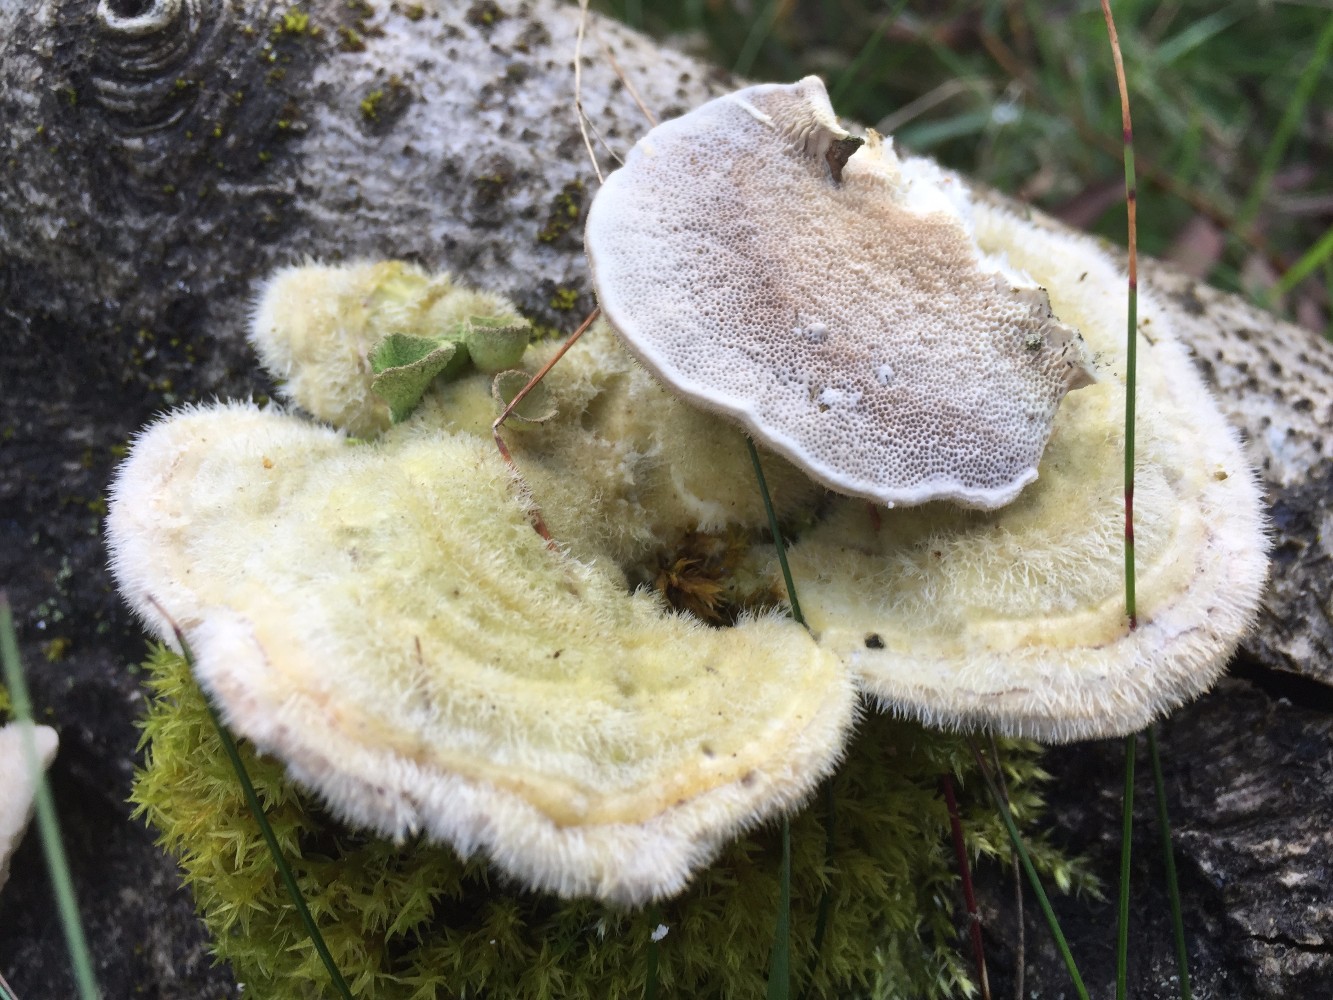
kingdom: Fungi
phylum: Basidiomycota
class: Agaricomycetes
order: Polyporales
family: Polyporaceae
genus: Trametes
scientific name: Trametes hirsuta
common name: håret læderporesvamp
